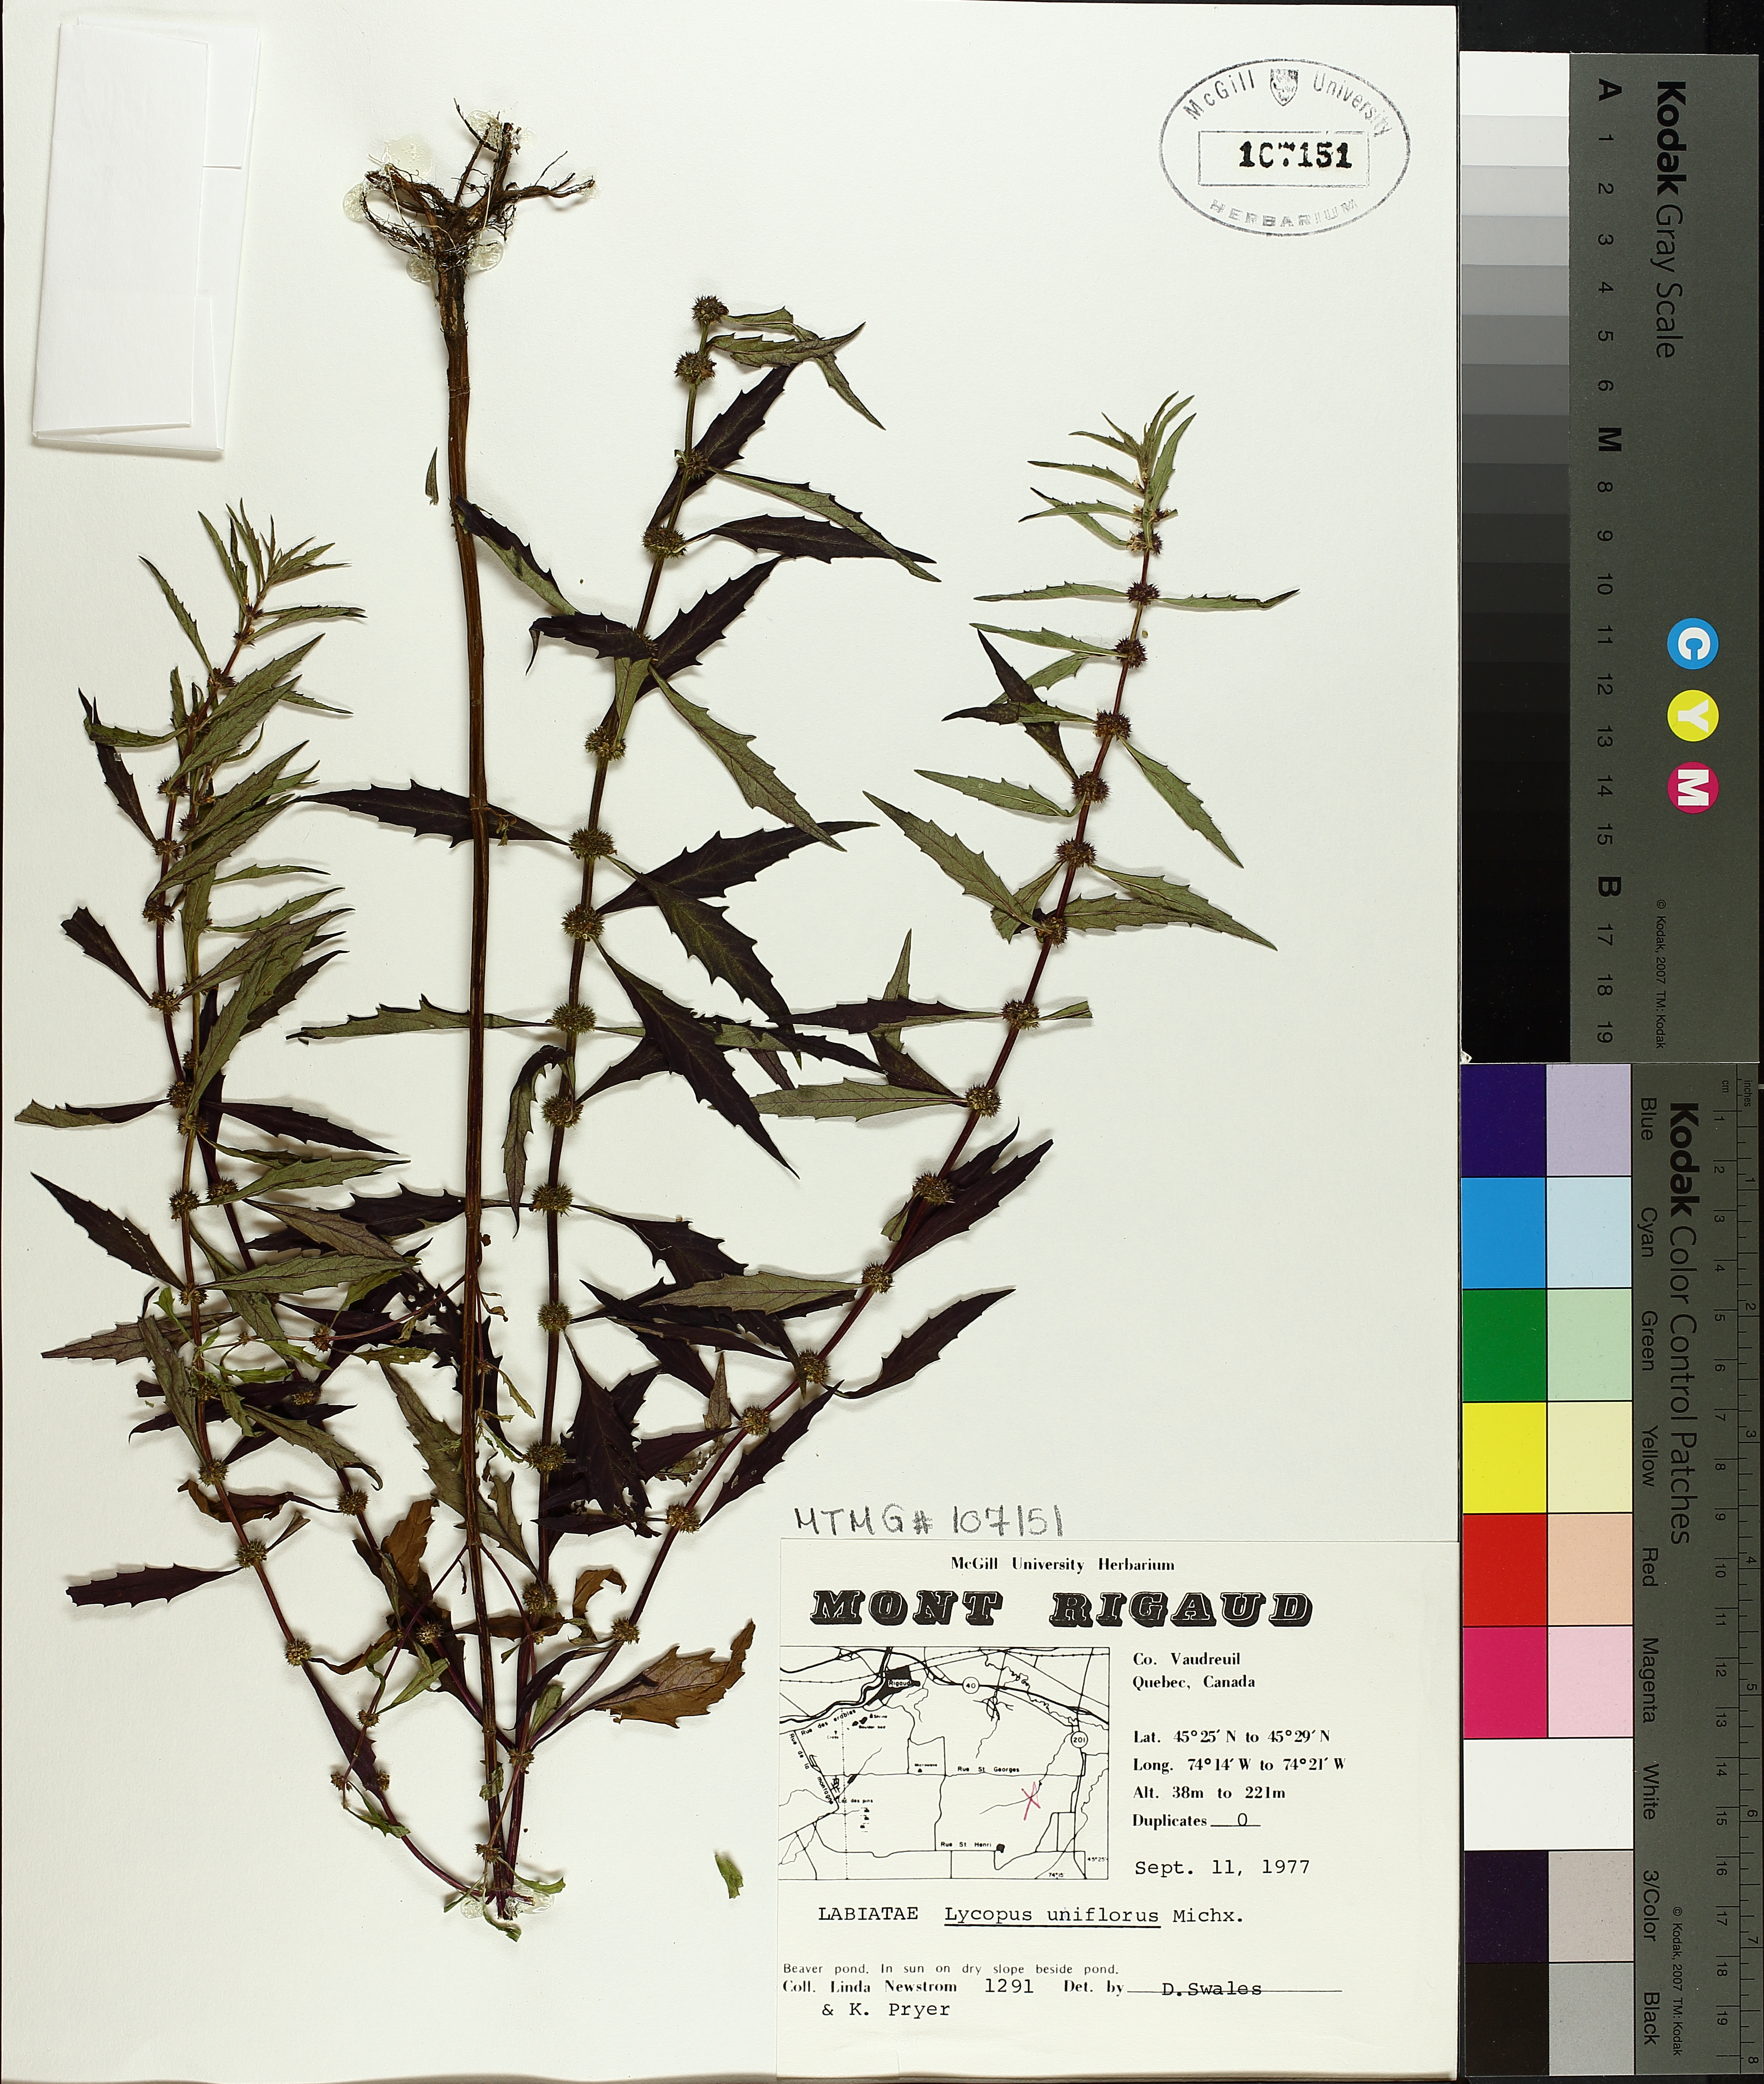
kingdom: Plantae
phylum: Tracheophyta
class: Magnoliopsida
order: Lamiales
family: Lamiaceae
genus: Lycopus
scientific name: Lycopus uniflorus
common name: Northern bugleweed
